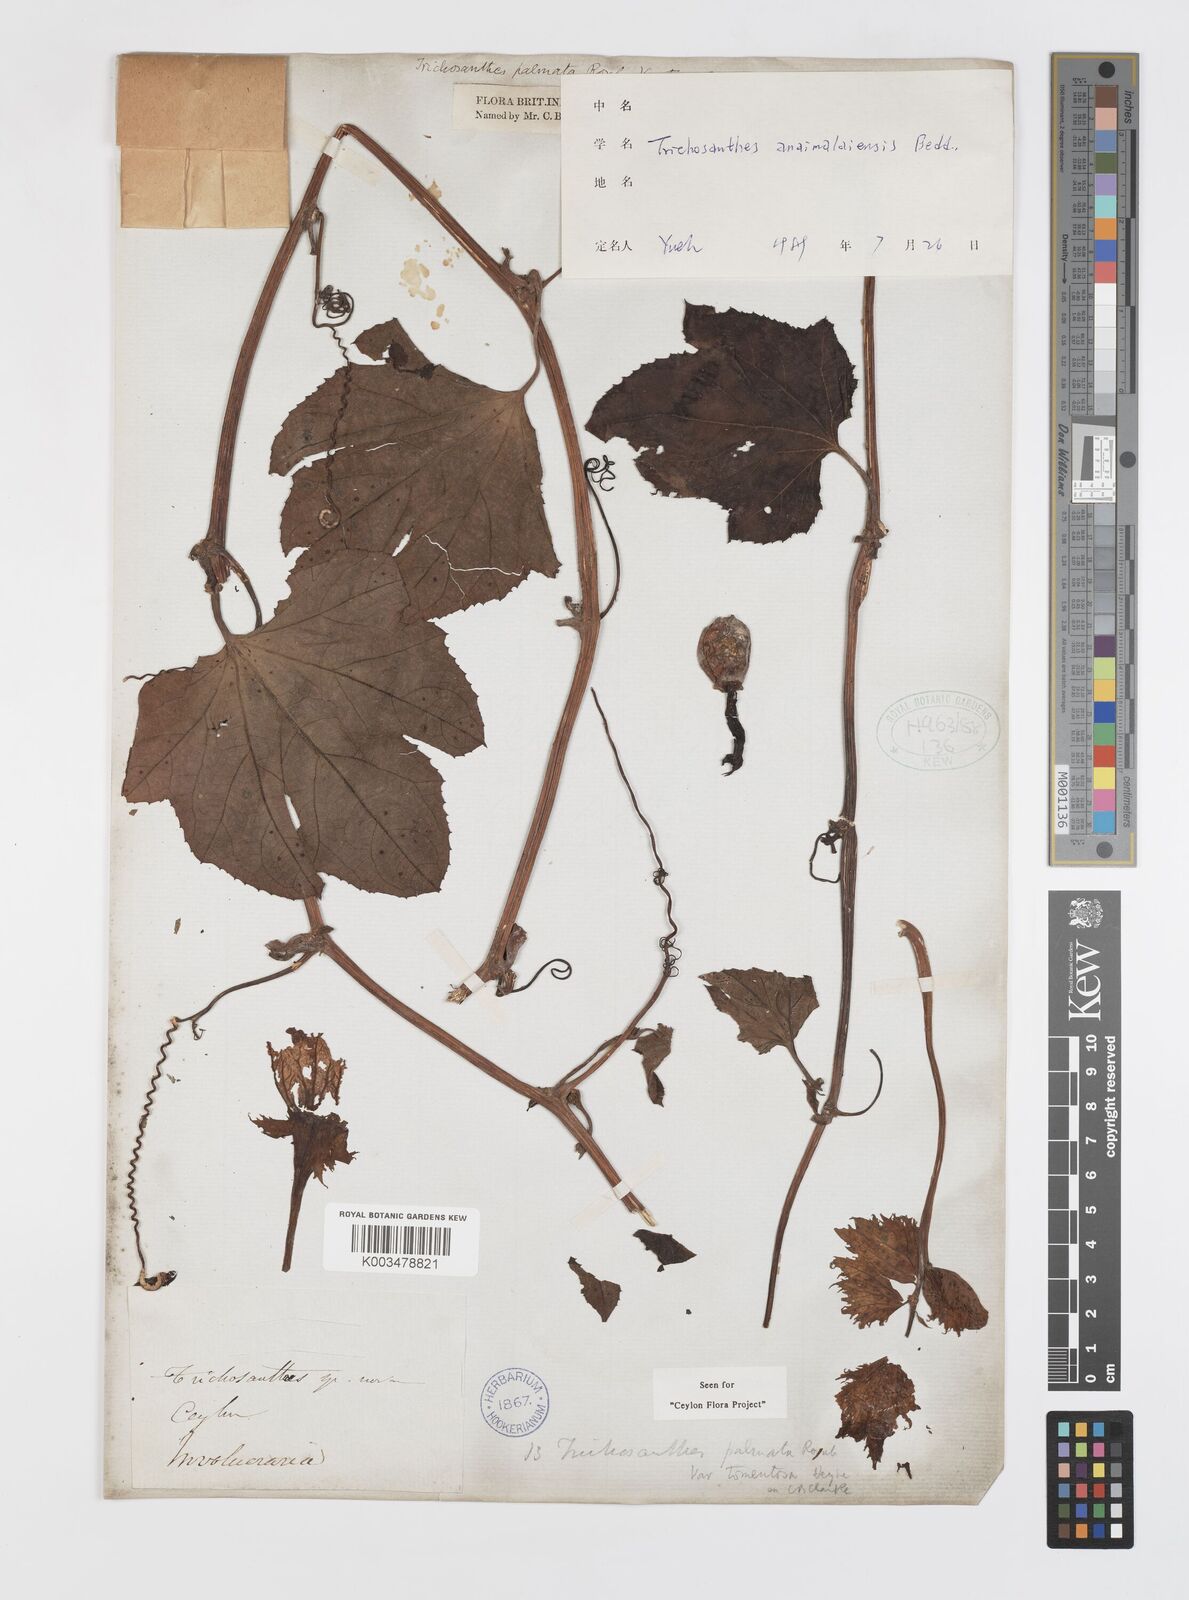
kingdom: Plantae
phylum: Tracheophyta
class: Magnoliopsida
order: Cucurbitales
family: Cucurbitaceae
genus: Trichosanthes
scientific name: Trichosanthes anaimalaiensis
